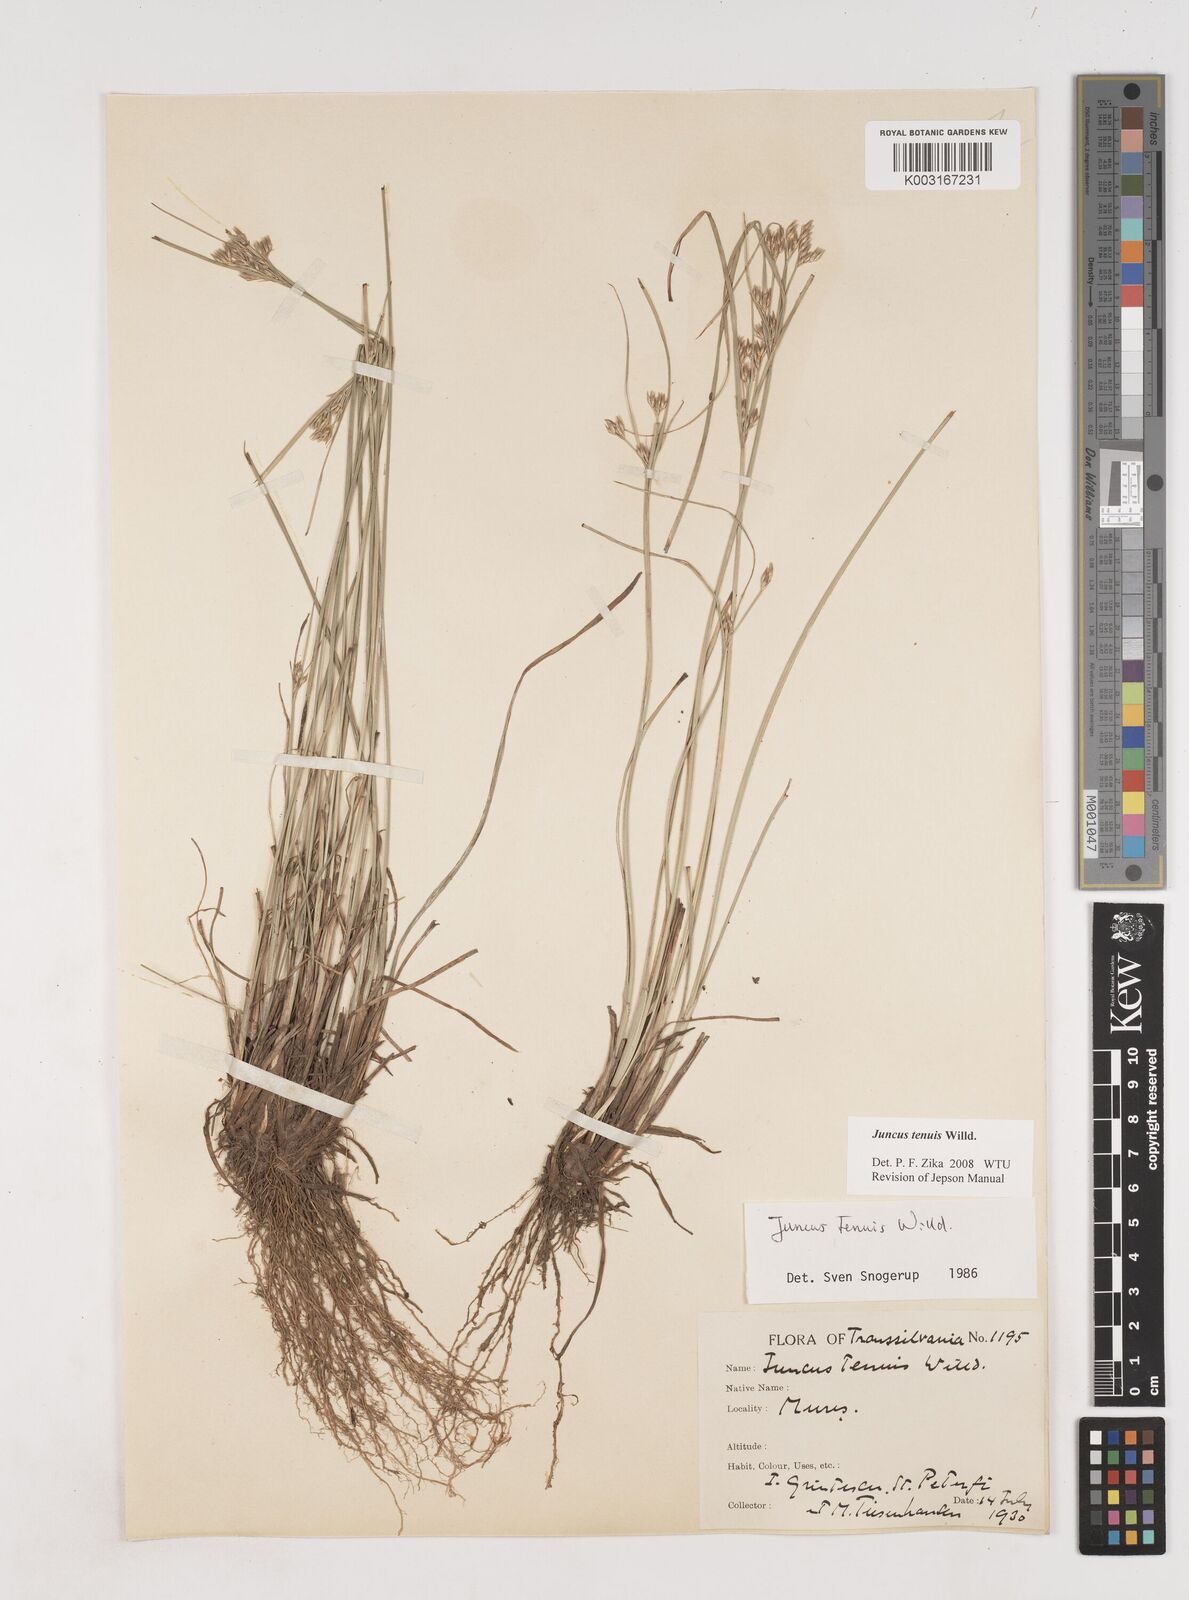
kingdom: Plantae
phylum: Tracheophyta
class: Liliopsida
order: Poales
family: Juncaceae
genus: Juncus
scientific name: Juncus tenuis
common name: Slender rush
